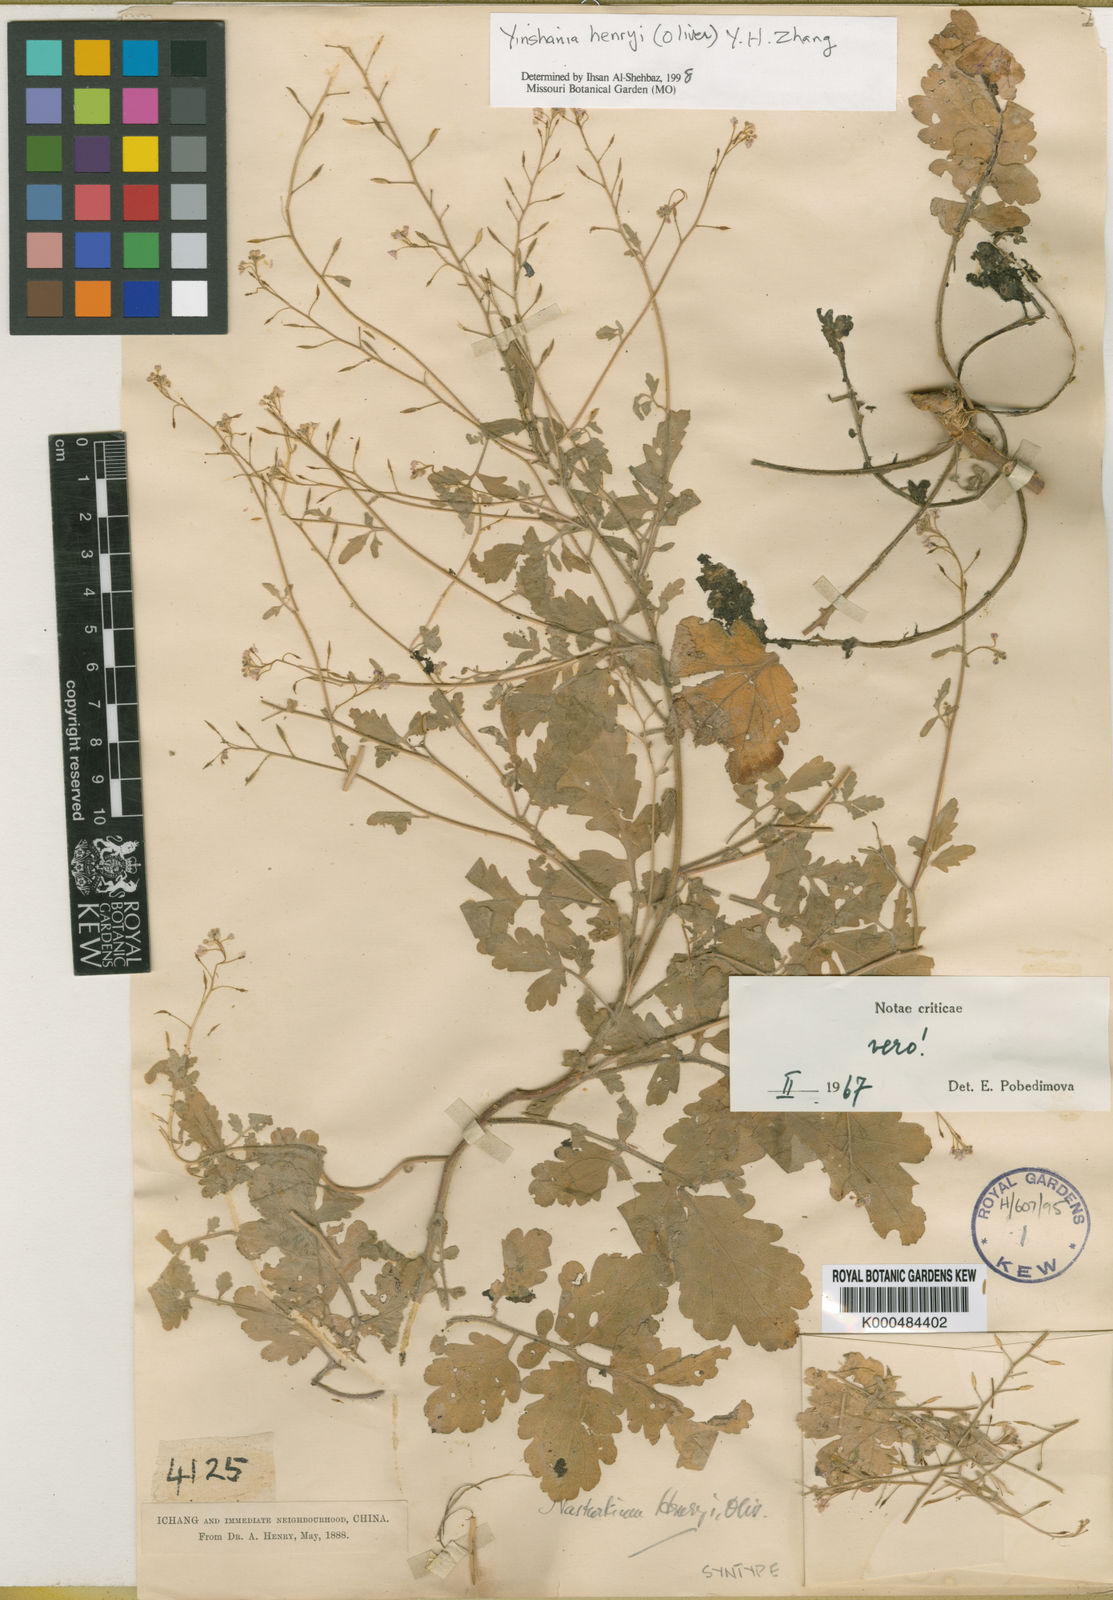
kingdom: Plantae
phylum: Tracheophyta
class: Magnoliopsida
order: Brassicales
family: Brassicaceae
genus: Yinshania
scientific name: Yinshania henryi
